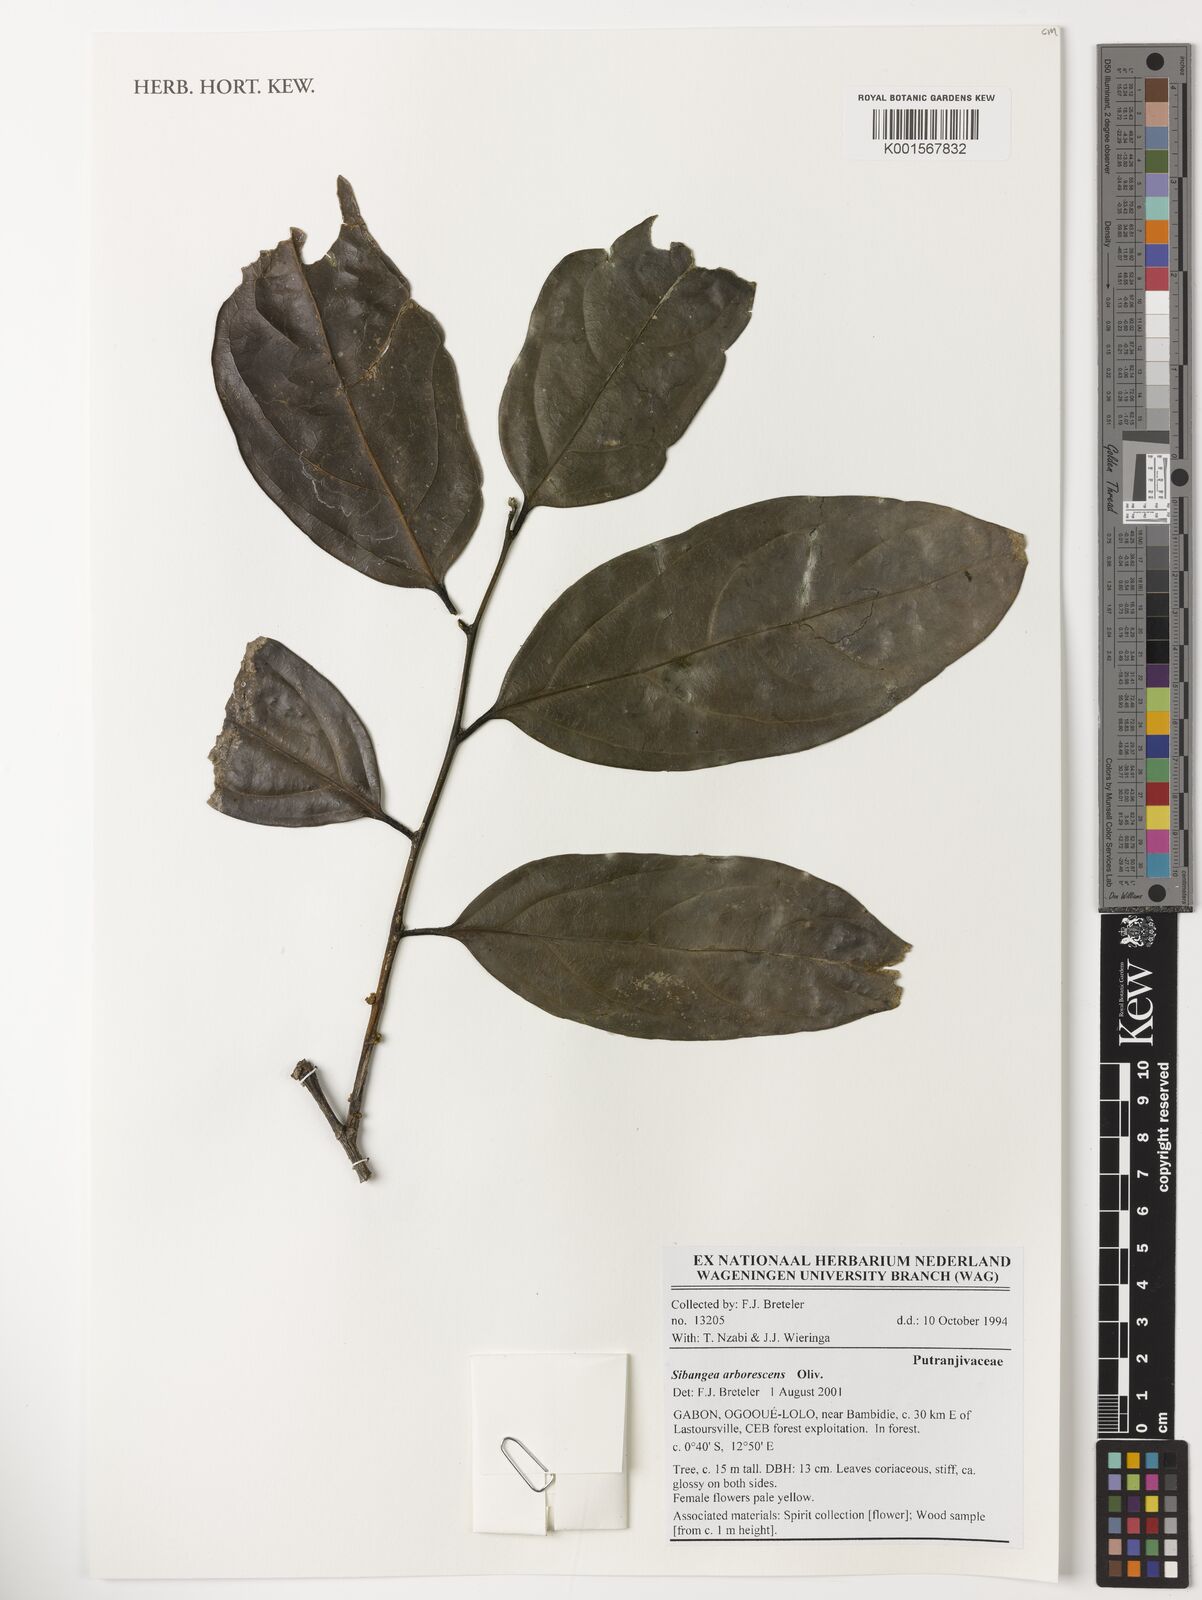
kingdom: Plantae
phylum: Tracheophyta
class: Magnoliopsida
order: Malpighiales
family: Putranjivaceae
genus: Drypetes
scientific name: Drypetes arborescens
